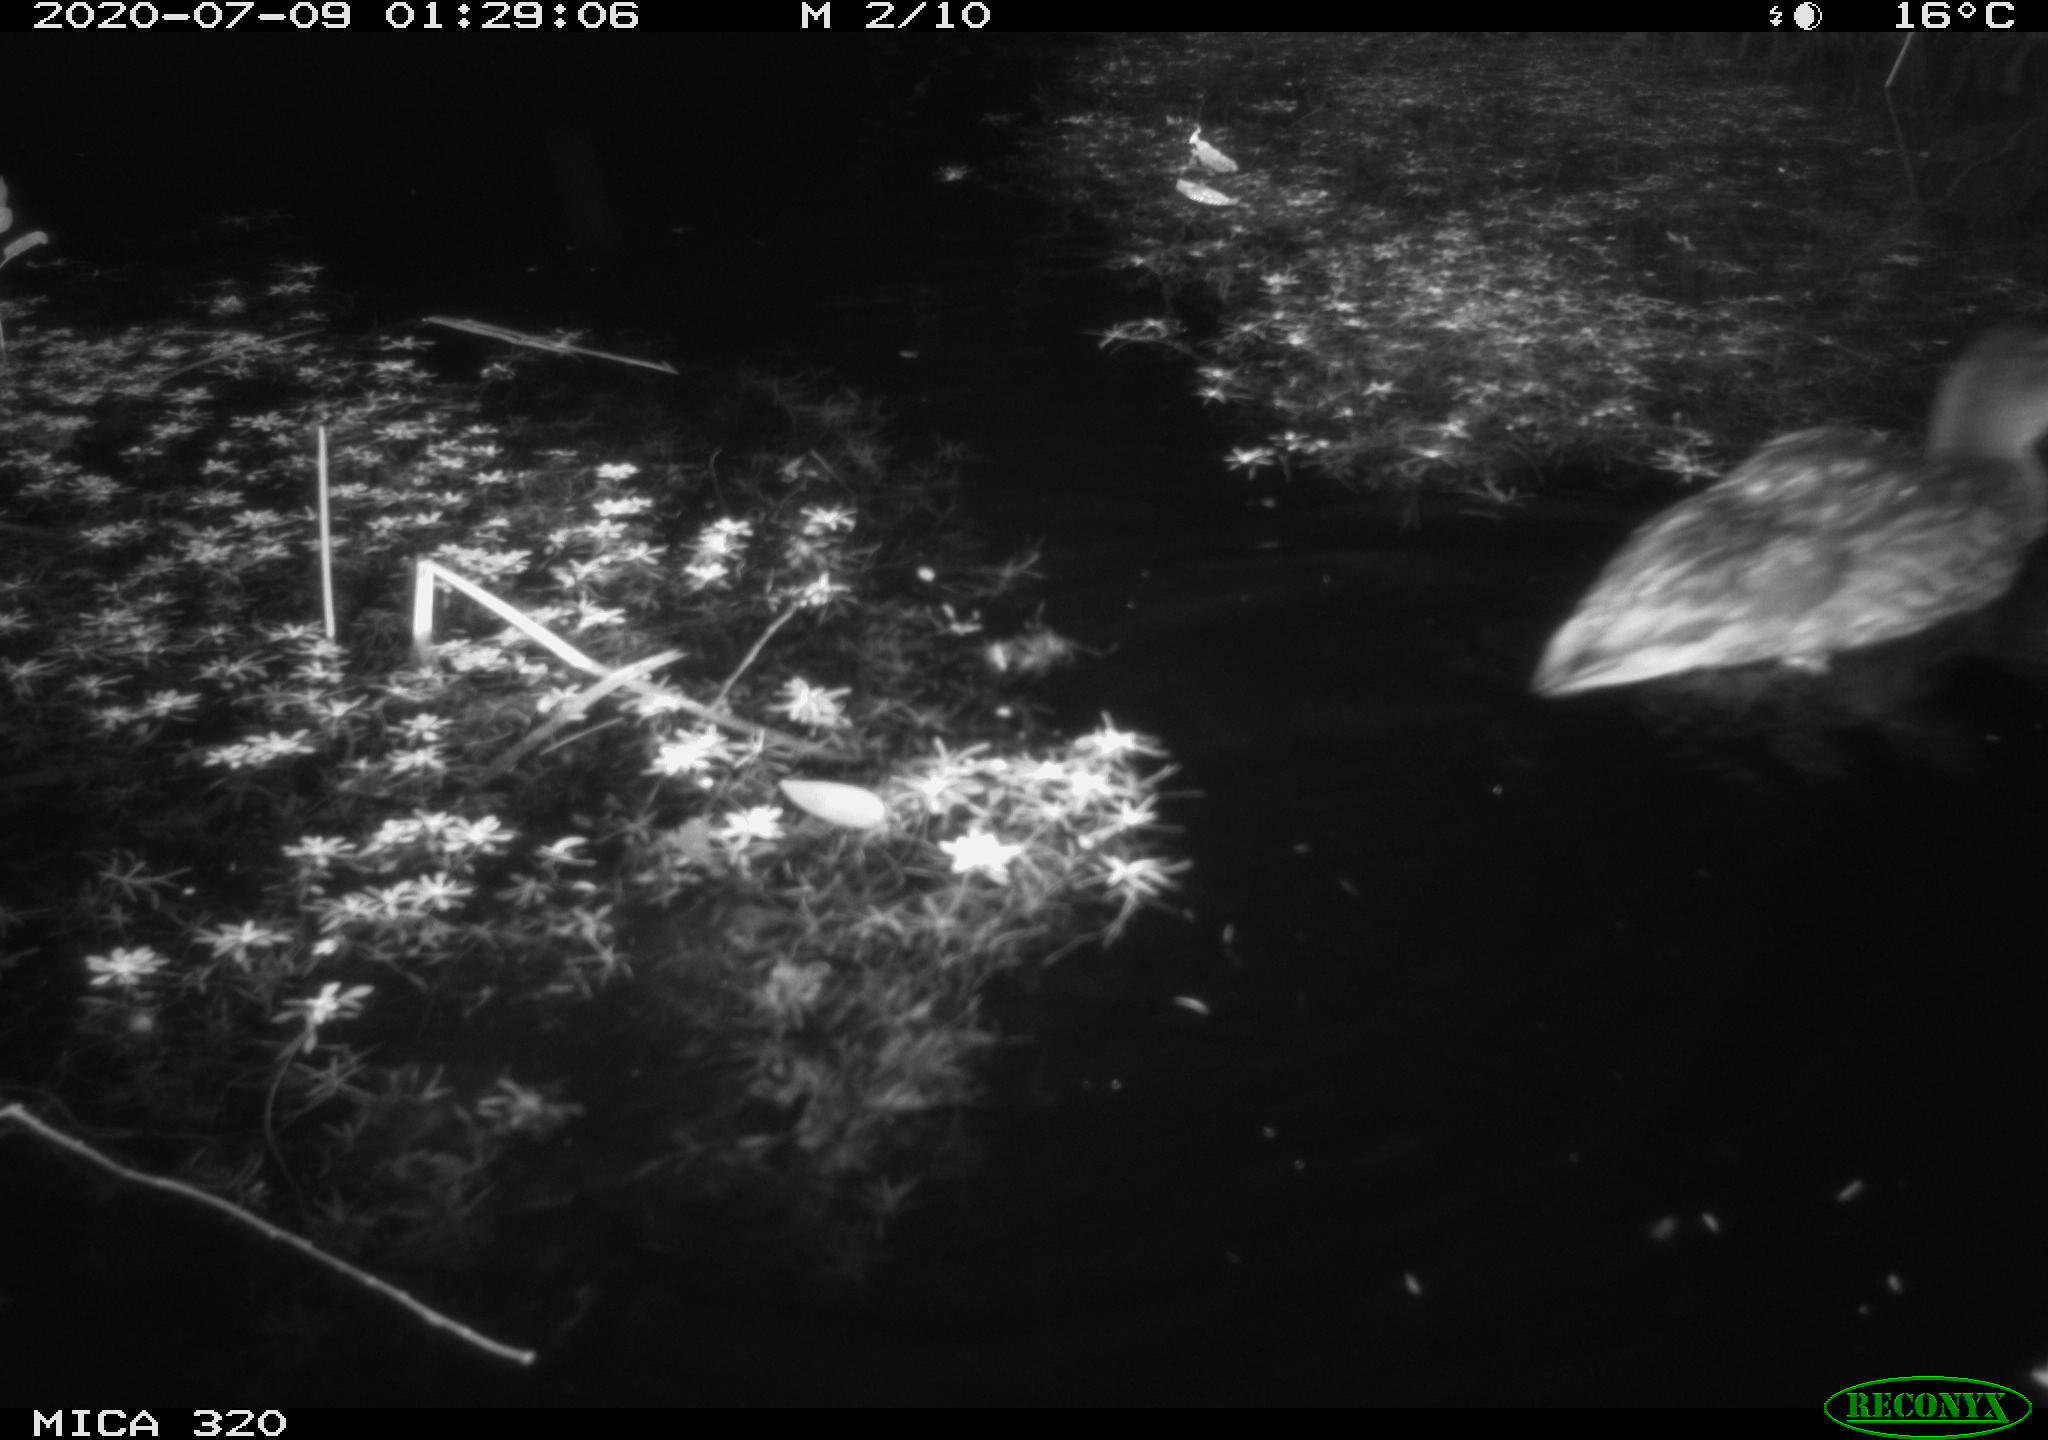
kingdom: Animalia
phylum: Chordata
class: Aves
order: Anseriformes
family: Anatidae
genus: Anas
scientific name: Anas platyrhynchos
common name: Mallard
